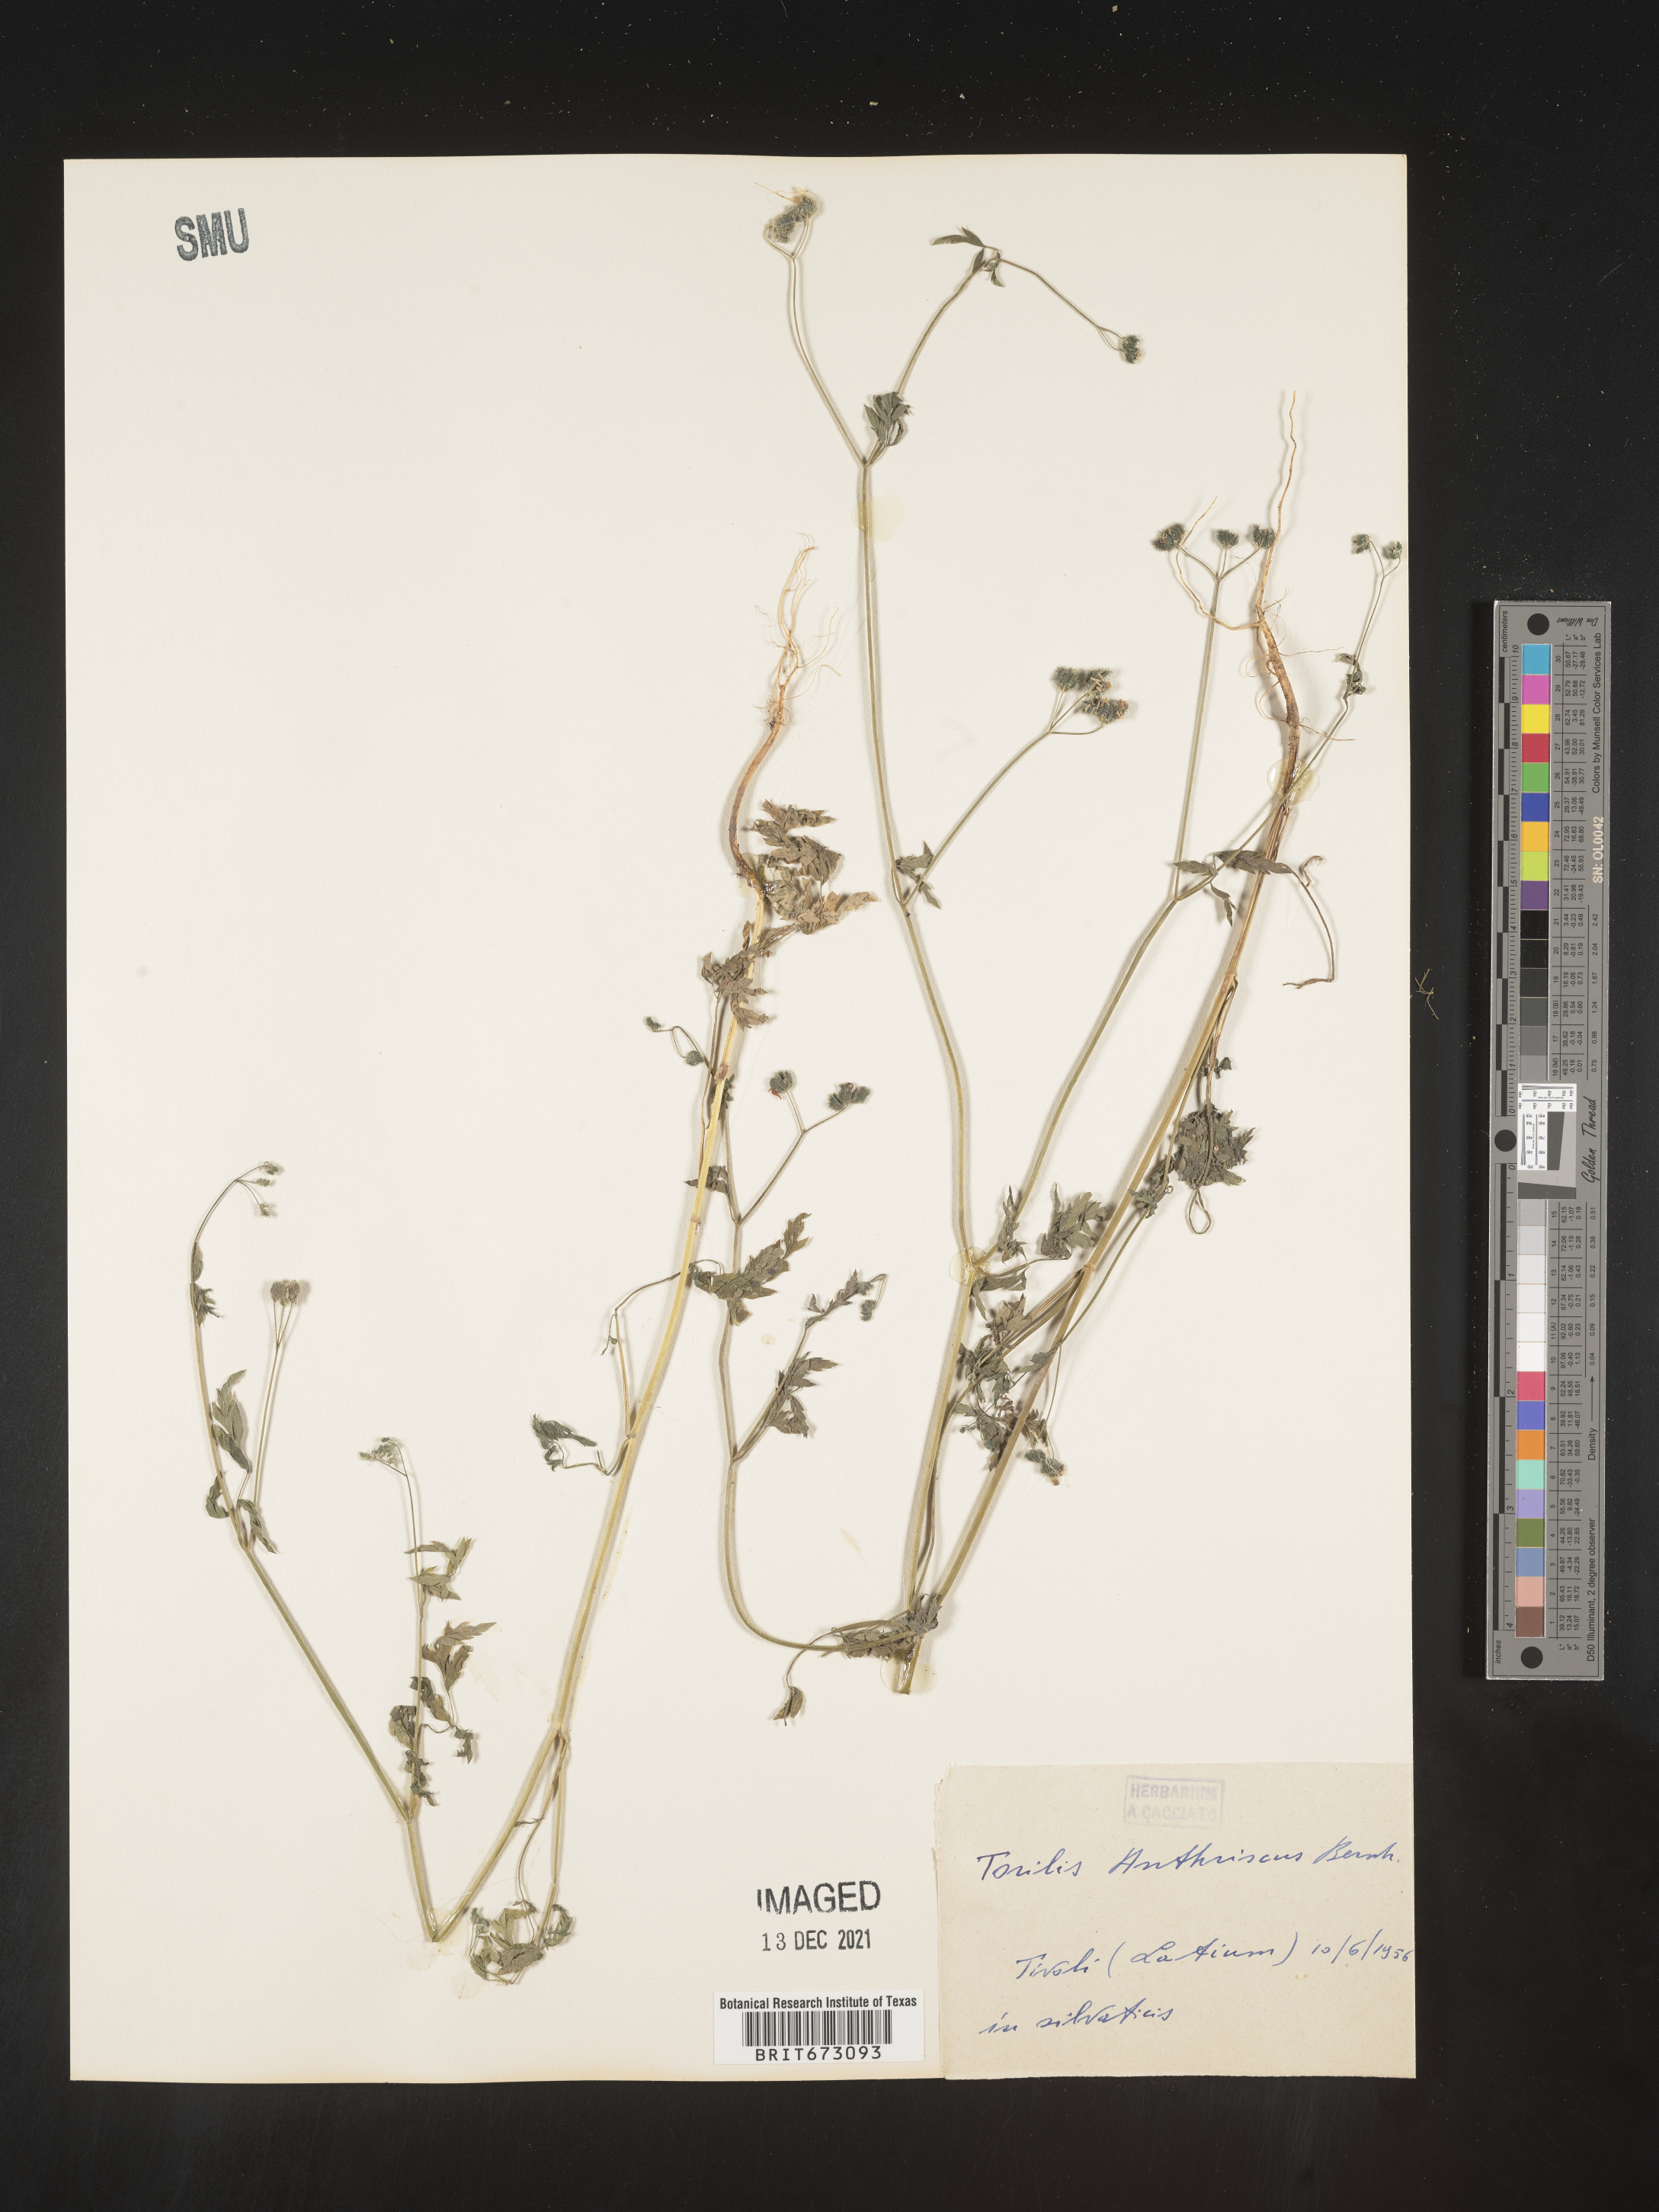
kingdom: Plantae
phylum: Tracheophyta
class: Magnoliopsida
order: Apiales
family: Apiaceae
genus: Torilis
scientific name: Torilis
